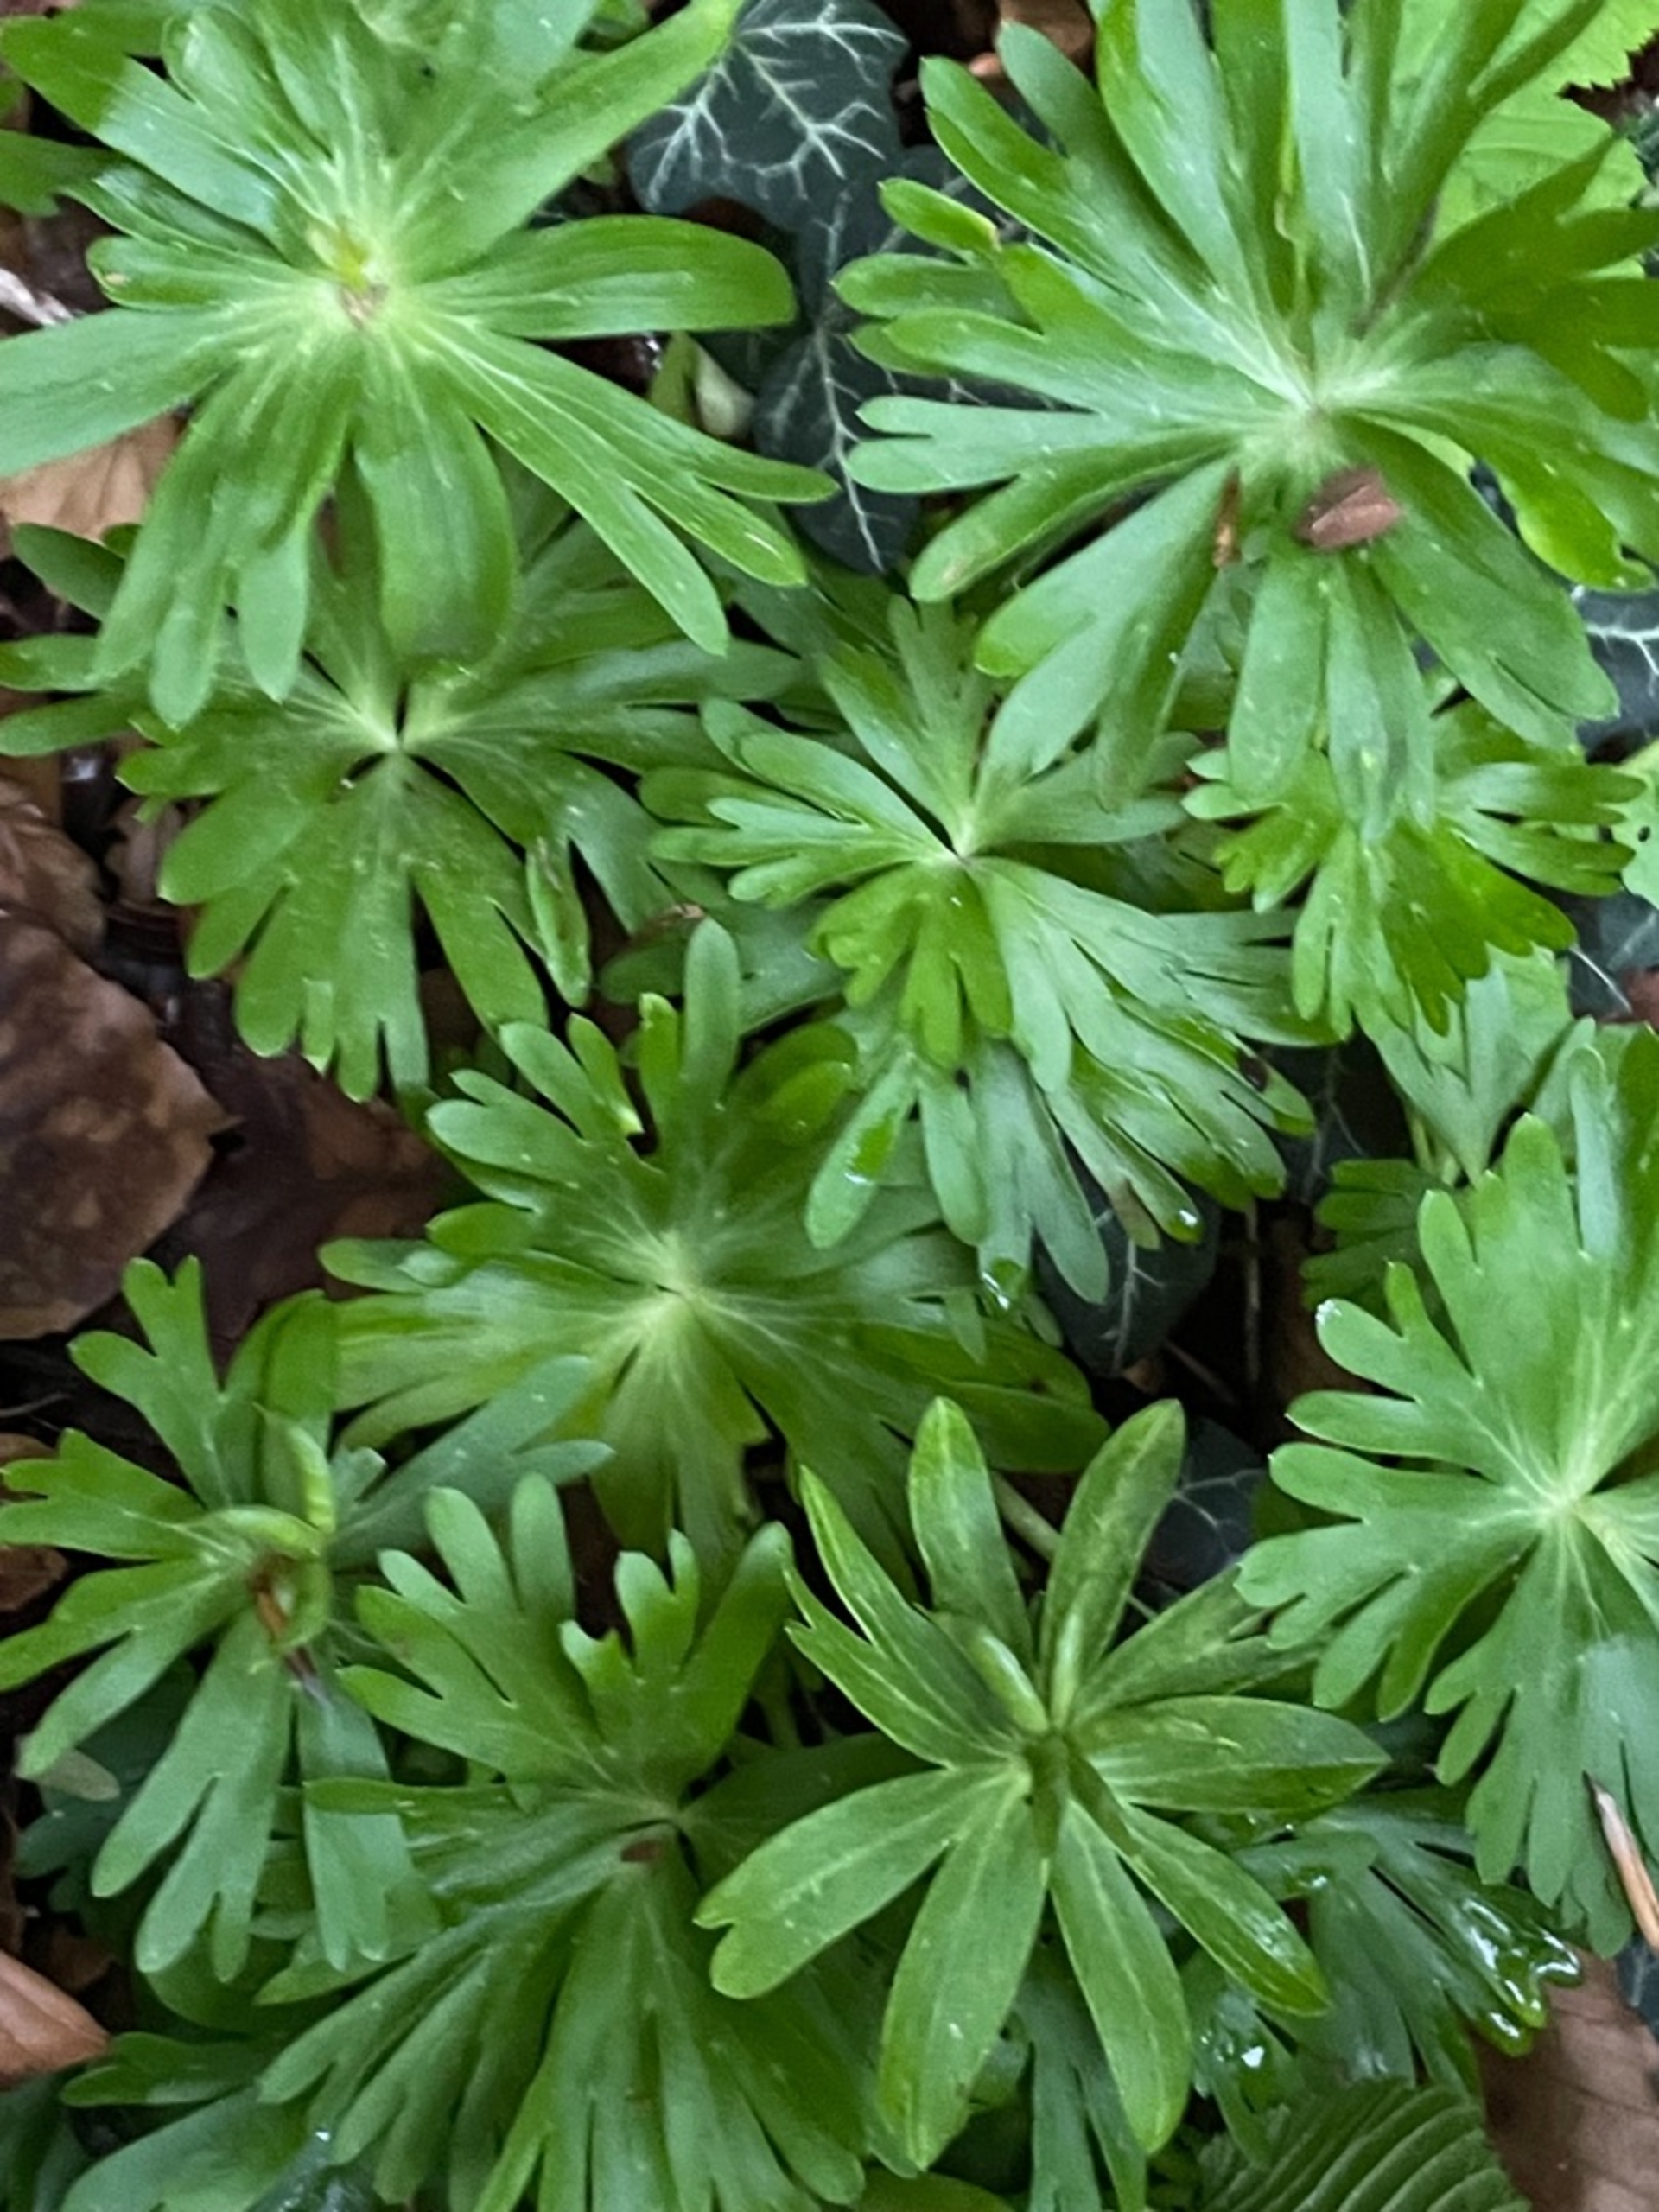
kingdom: Plantae
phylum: Tracheophyta
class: Magnoliopsida
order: Ranunculales
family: Ranunculaceae
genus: Eranthis
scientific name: Eranthis hyemalis
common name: Erantis
